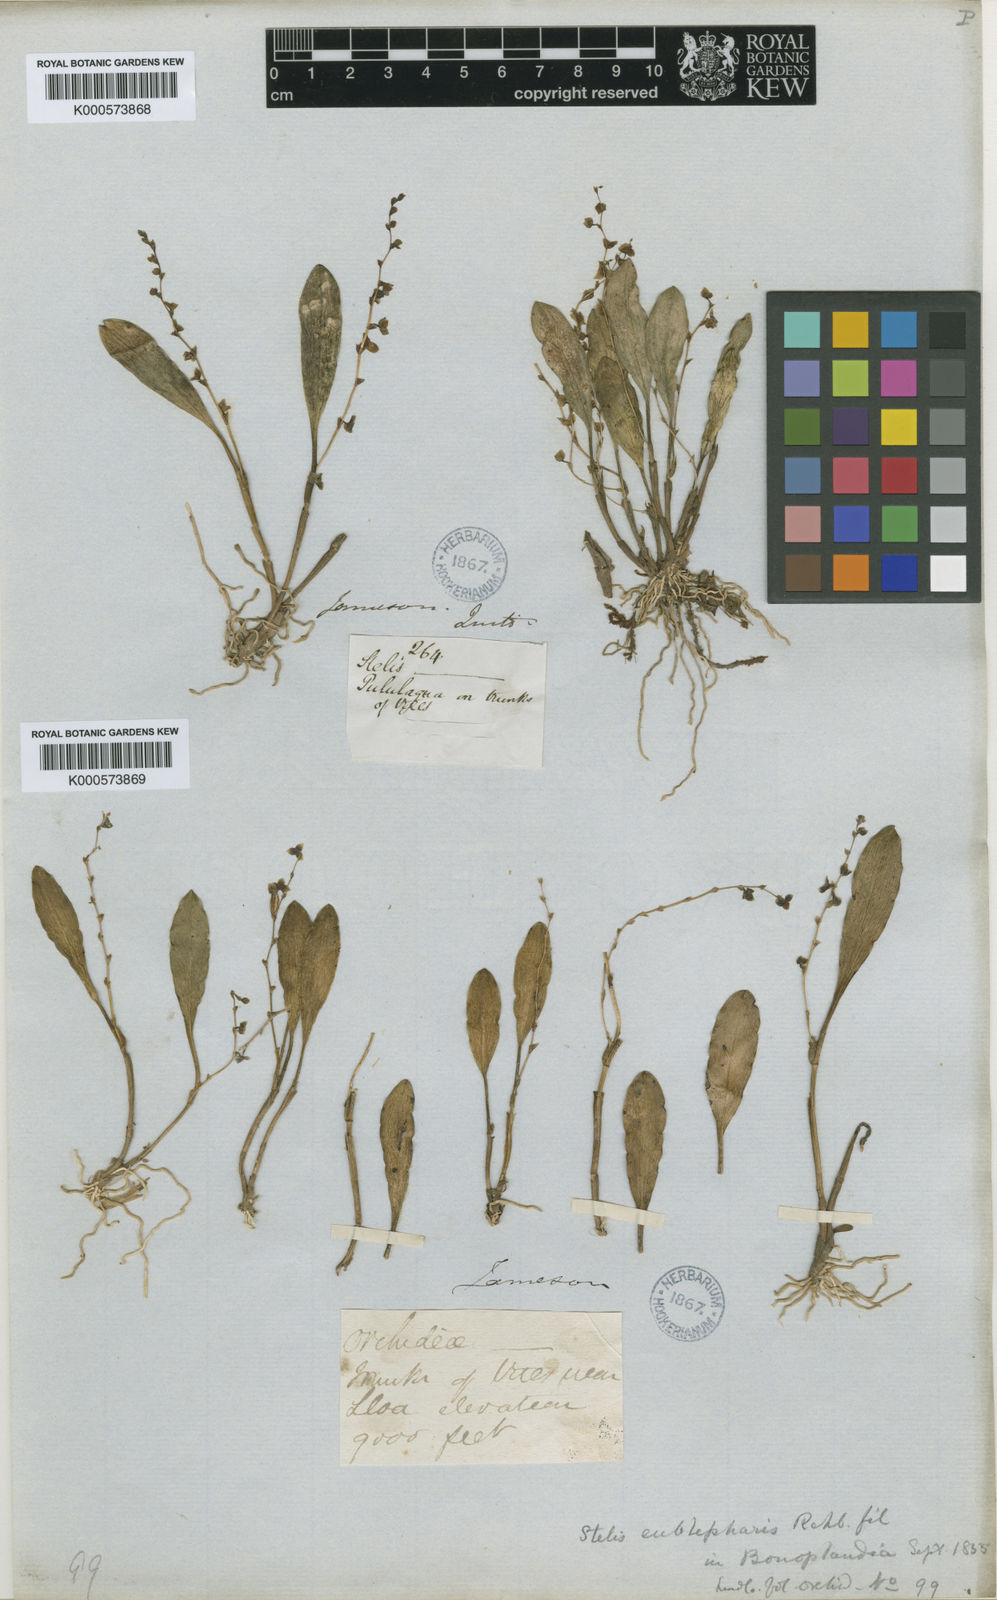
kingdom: Plantae
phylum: Tracheophyta
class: Liliopsida
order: Asparagales
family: Orchidaceae
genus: Stelis
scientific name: Stelis eublepharis
